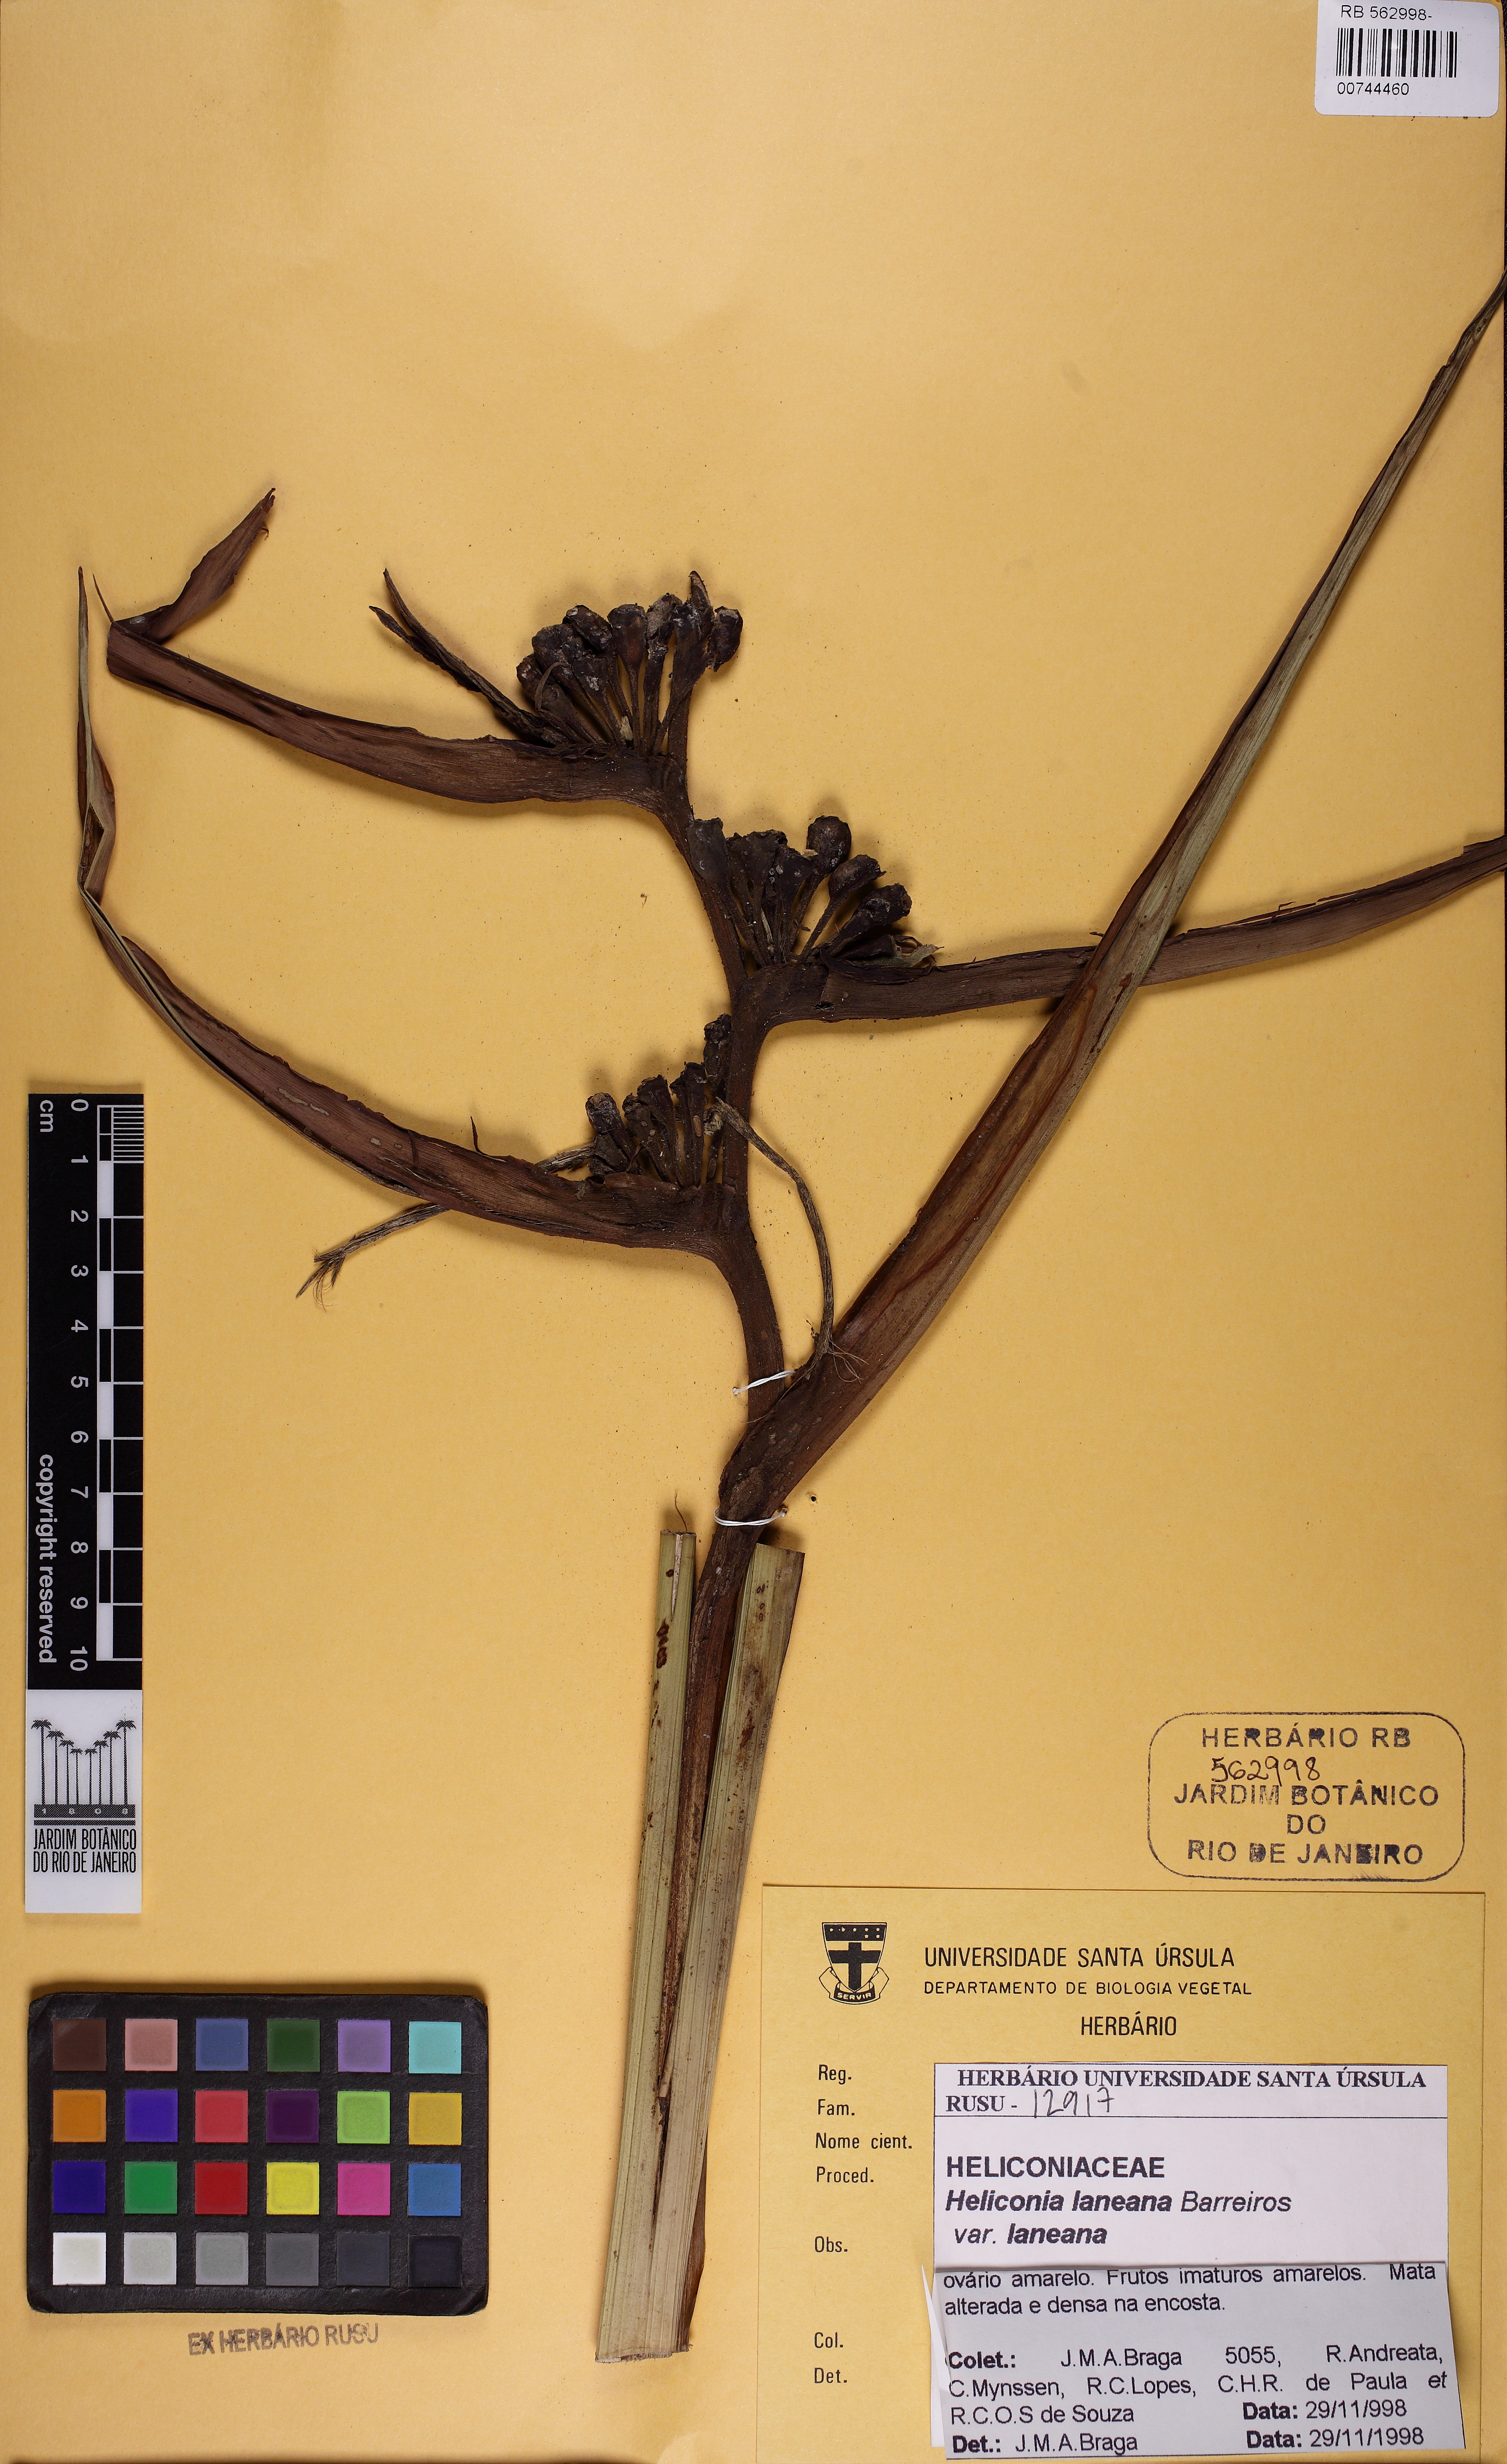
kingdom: Plantae
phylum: Tracheophyta
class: Liliopsida
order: Zingiberales
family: Heliconiaceae
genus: Heliconia
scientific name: Heliconia angusta
